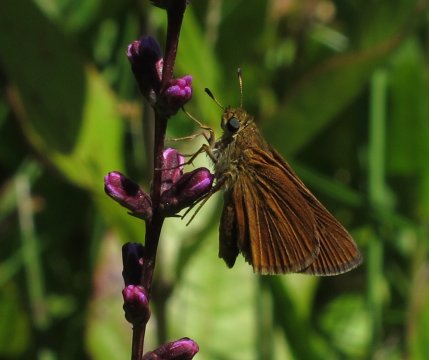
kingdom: Animalia
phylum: Arthropoda
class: Insecta
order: Lepidoptera
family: Hesperiidae
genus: Euphyes
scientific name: Euphyes dion
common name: Dion Skipper
